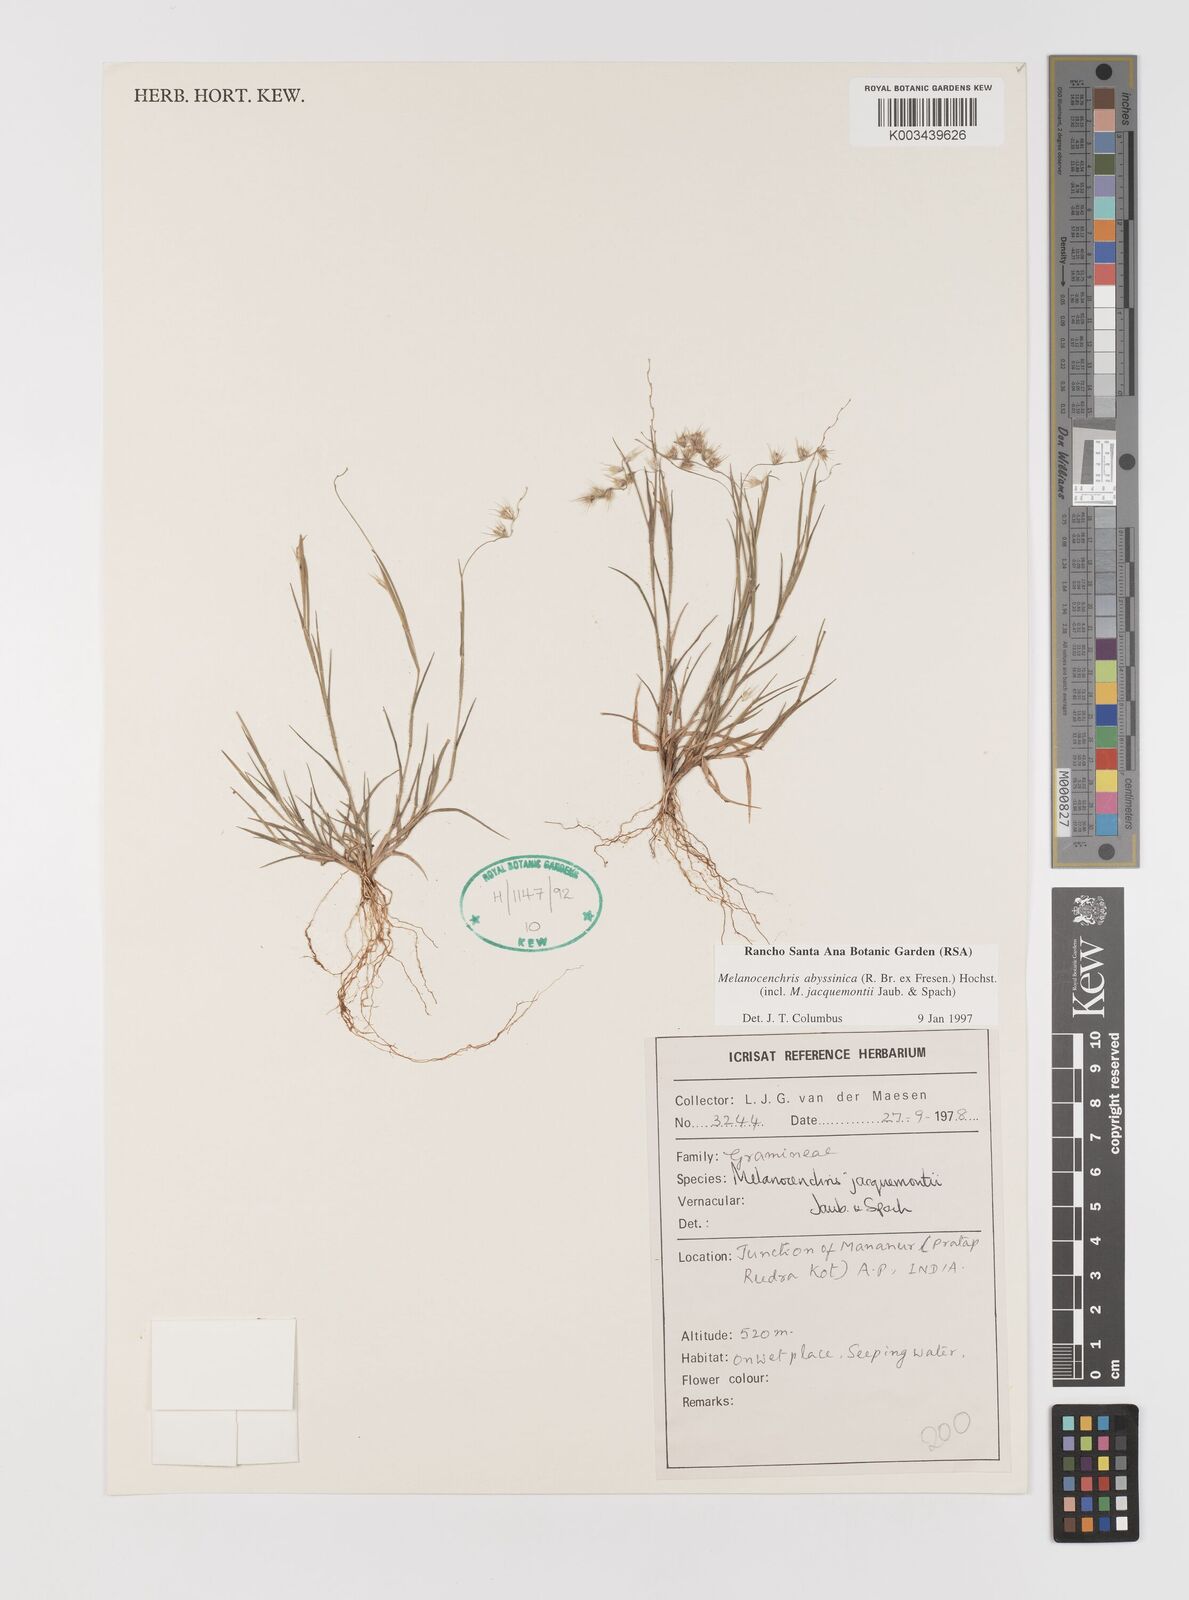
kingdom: Plantae
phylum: Tracheophyta
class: Liliopsida
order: Poales
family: Poaceae
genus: Melanocenchris
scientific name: Melanocenchris abyssinica
